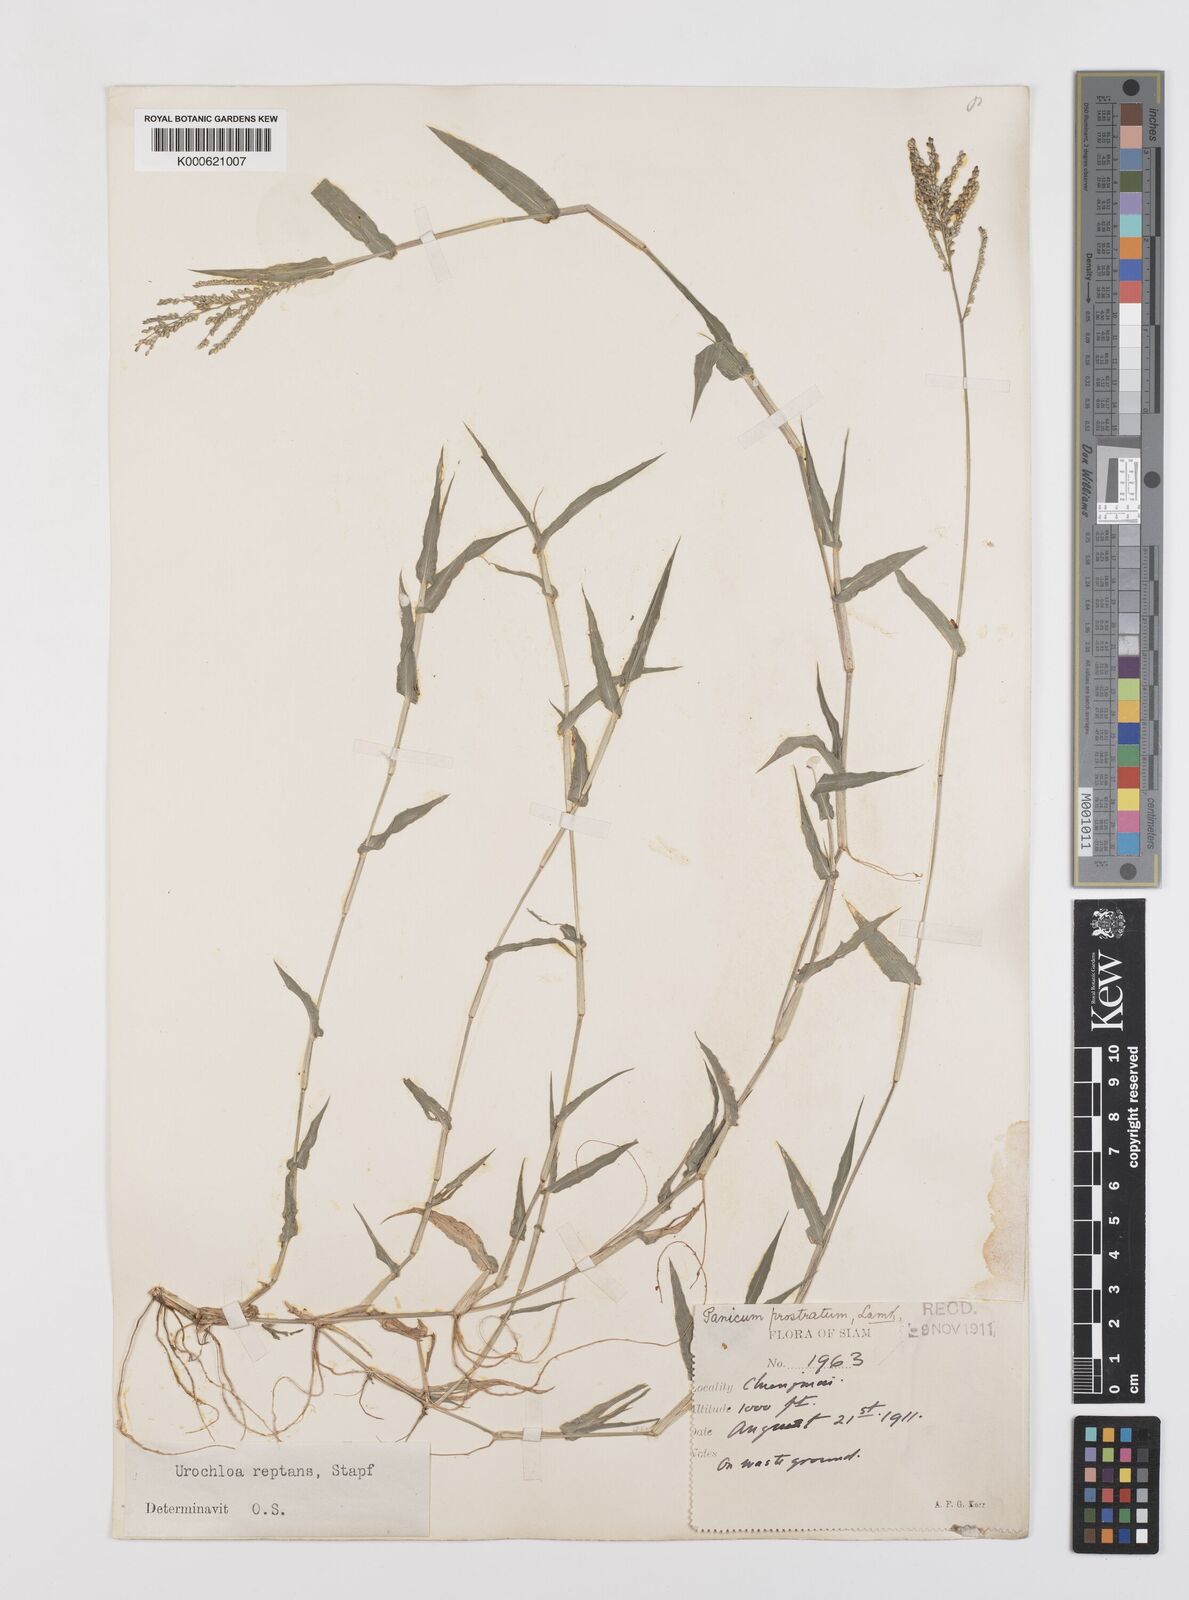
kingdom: Plantae
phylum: Tracheophyta
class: Liliopsida
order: Poales
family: Poaceae
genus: Urochloa
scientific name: Urochloa reptans
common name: Sprawling signalgrass
